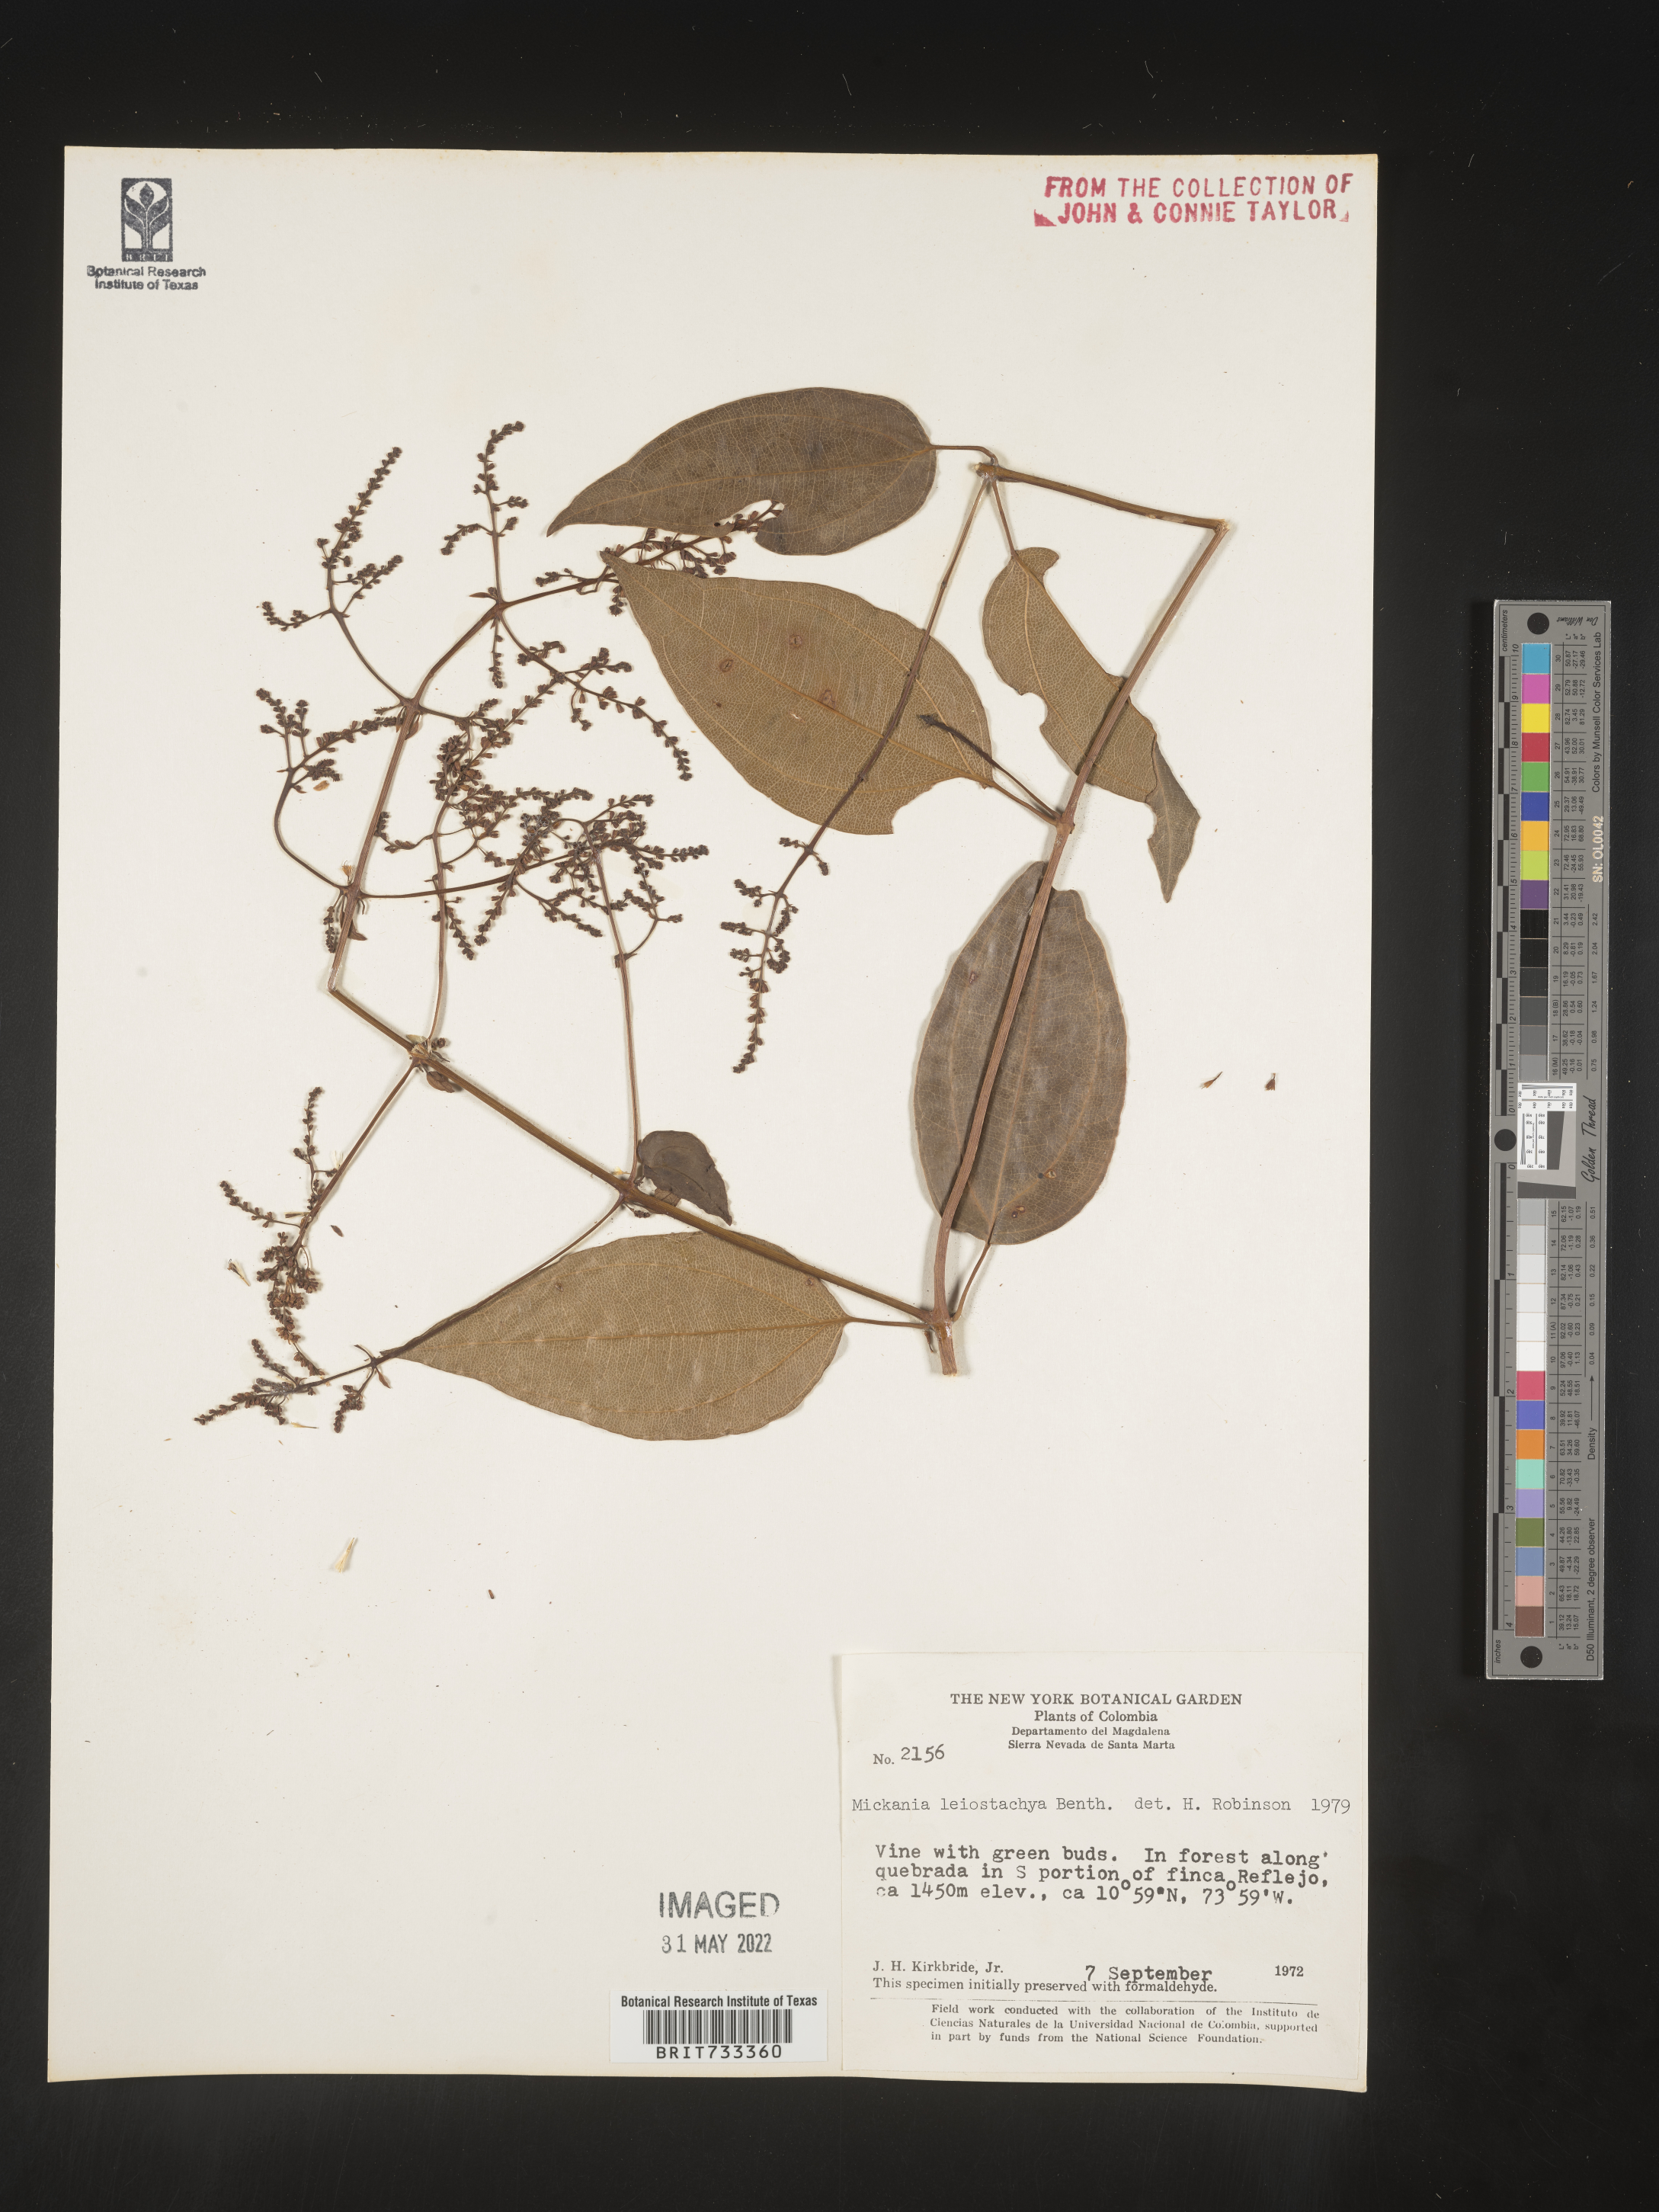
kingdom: Plantae
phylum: Tracheophyta
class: Magnoliopsida
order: Asterales
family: Asteraceae
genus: Mikania
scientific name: Mikania
